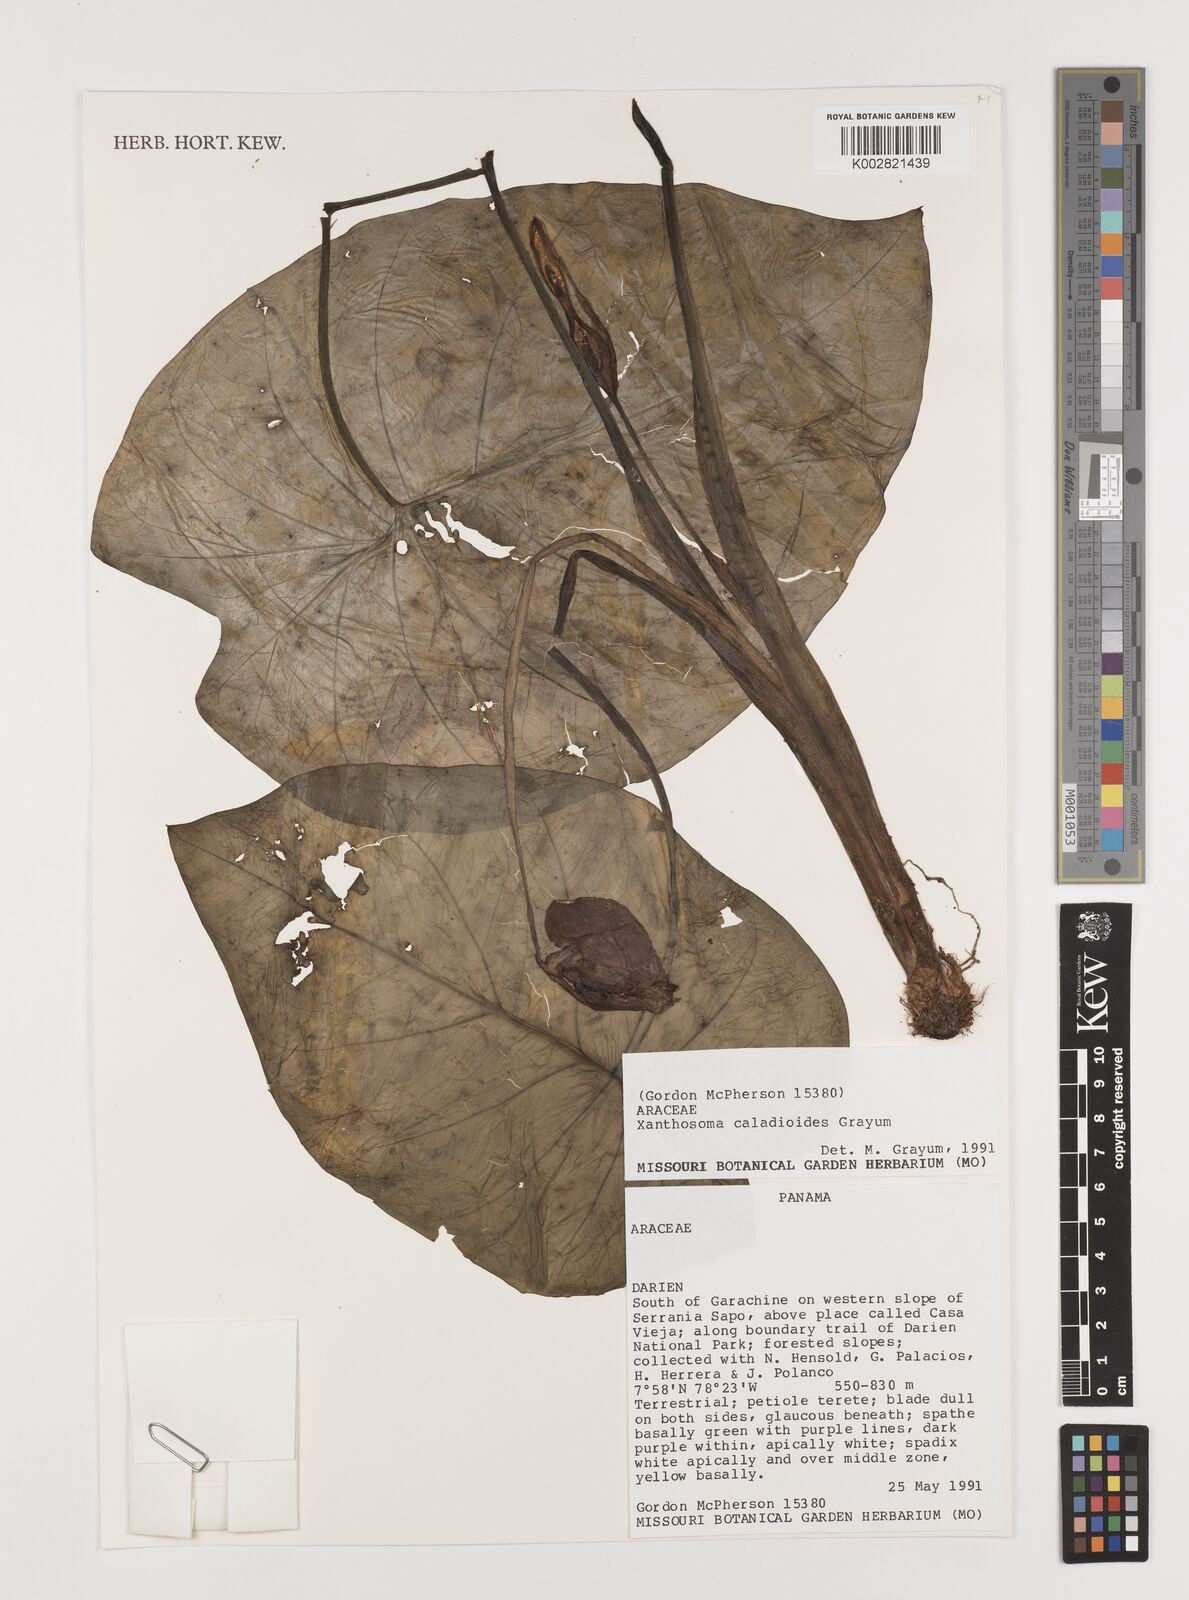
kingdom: Plantae
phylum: Tracheophyta
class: Liliopsida
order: Alismatales
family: Araceae
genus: Xanthosoma
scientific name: Xanthosoma caladioides
